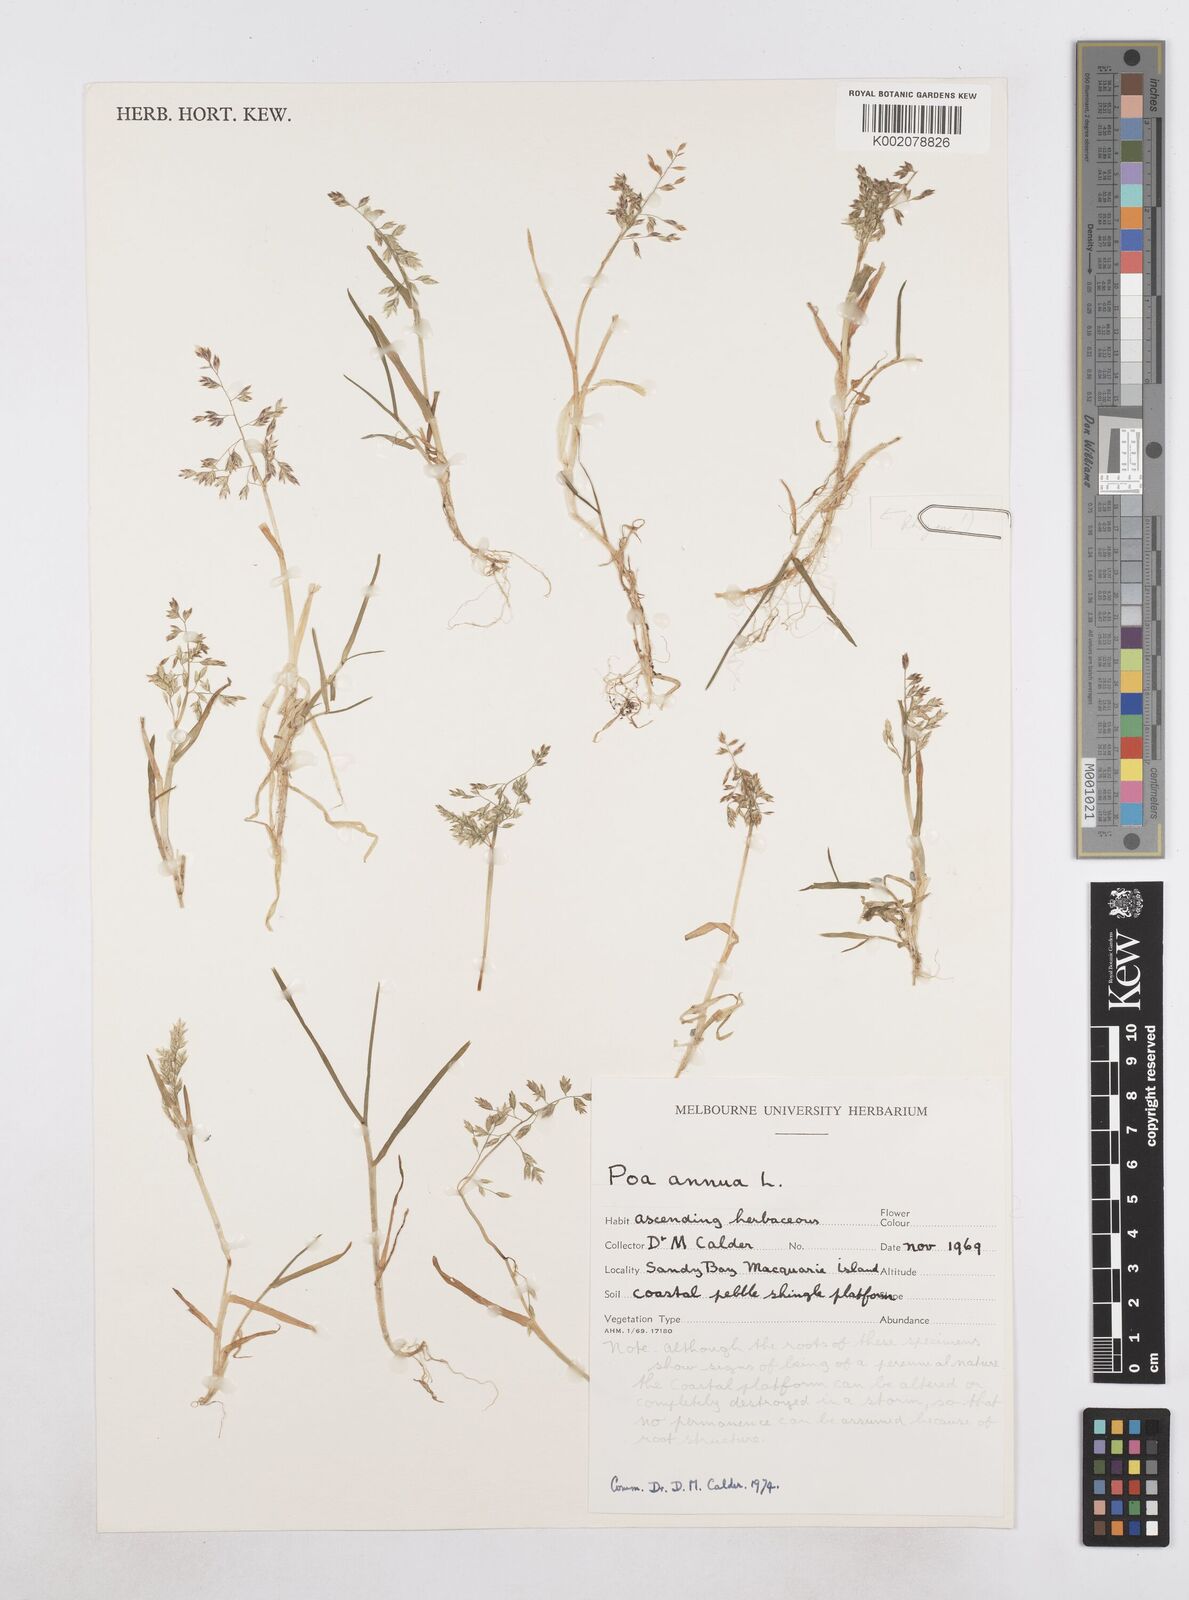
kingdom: Plantae
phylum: Tracheophyta
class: Liliopsida
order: Poales
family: Poaceae
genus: Poa
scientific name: Poa annua
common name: Annual bluegrass
